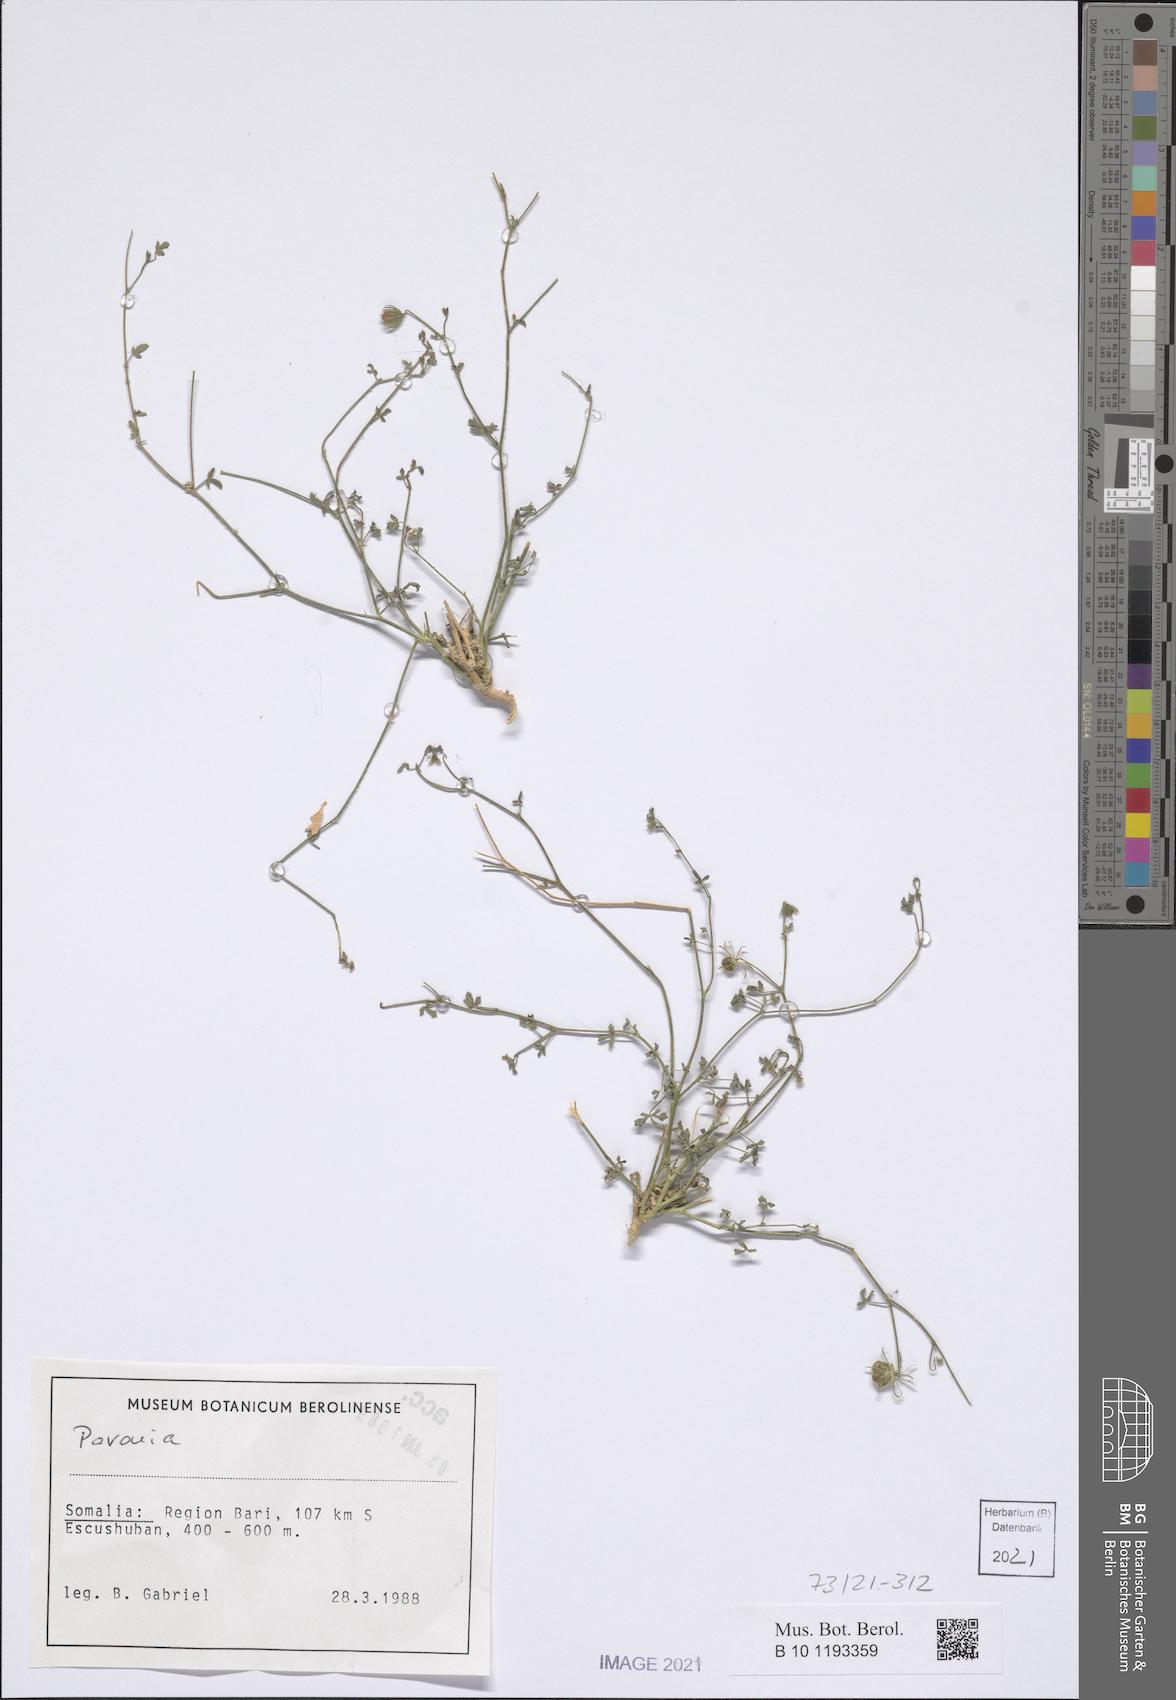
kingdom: Plantae
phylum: Tracheophyta
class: Magnoliopsida
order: Malvales
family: Malvaceae
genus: Pavonia
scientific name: Pavonia
